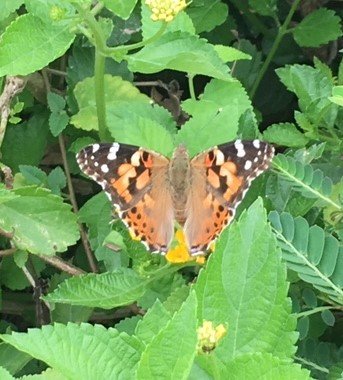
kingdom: Animalia
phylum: Arthropoda
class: Insecta
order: Lepidoptera
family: Nymphalidae
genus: Vanessa
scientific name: Vanessa cardui
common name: Painted Lady
